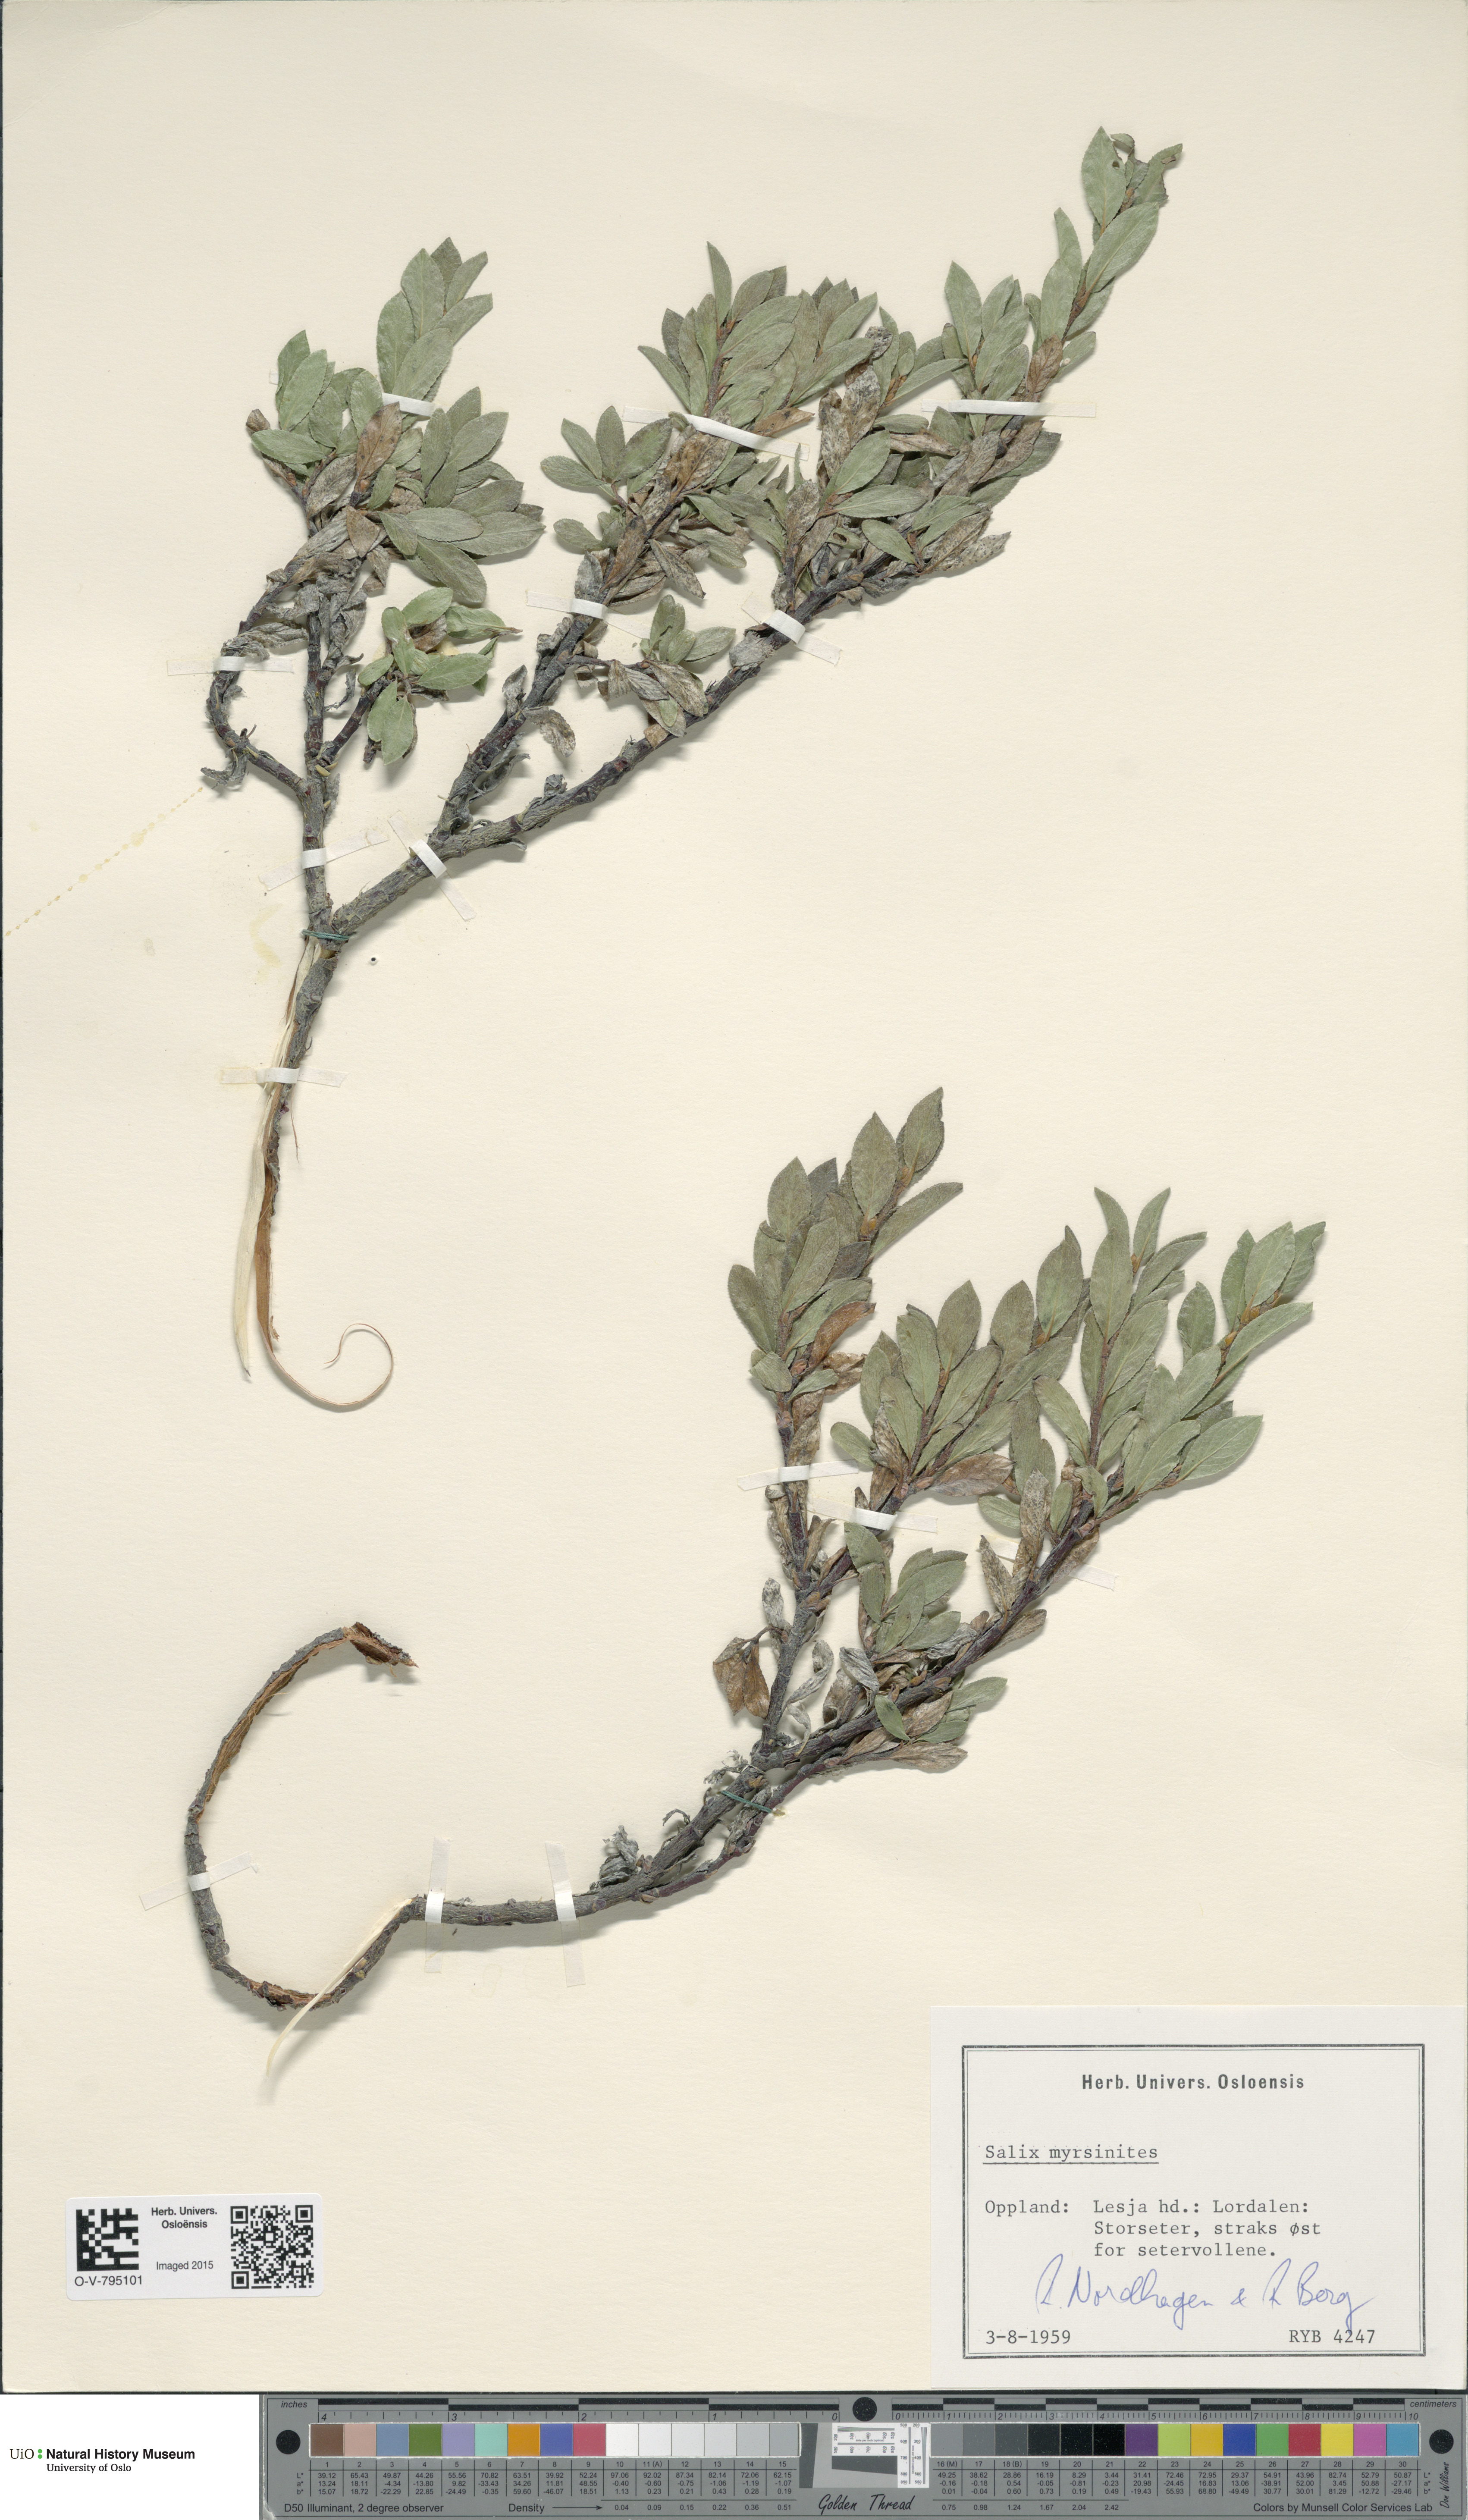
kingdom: Plantae
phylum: Tracheophyta
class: Magnoliopsida
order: Malpighiales
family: Salicaceae
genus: Salix
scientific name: Salix myrsinites
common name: Myrtle willow
